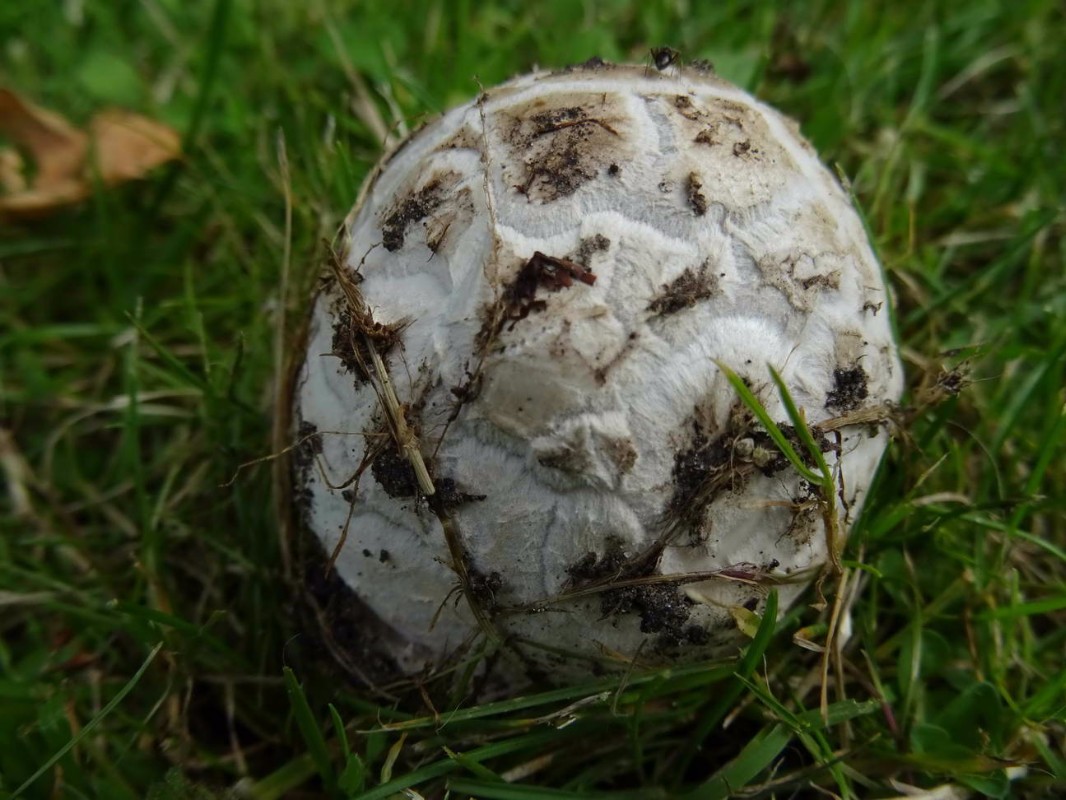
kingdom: Fungi
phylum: Basidiomycota
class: Agaricomycetes
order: Agaricales
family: Amanitaceae
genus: Amanita
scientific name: Amanita
